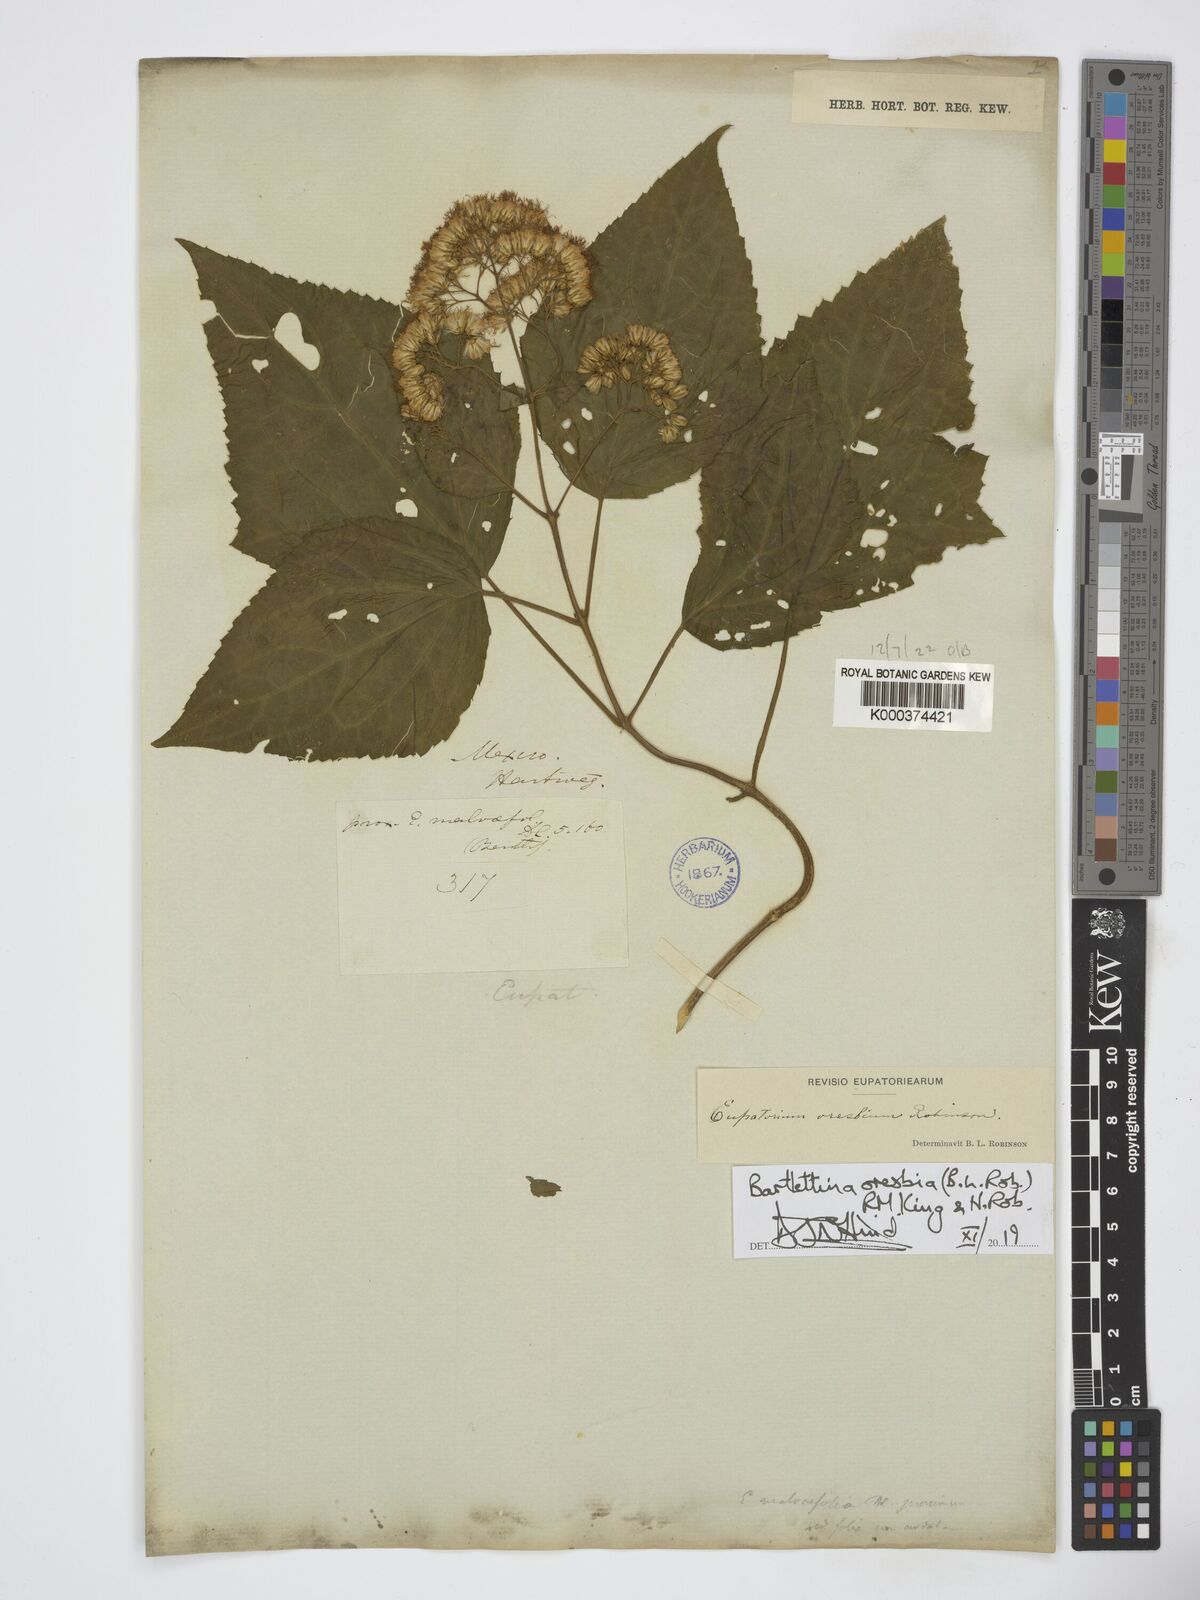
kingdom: Plantae
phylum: Tracheophyta
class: Magnoliopsida
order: Asterales
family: Asteraceae
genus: Bartlettina
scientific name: Bartlettina oresbia
